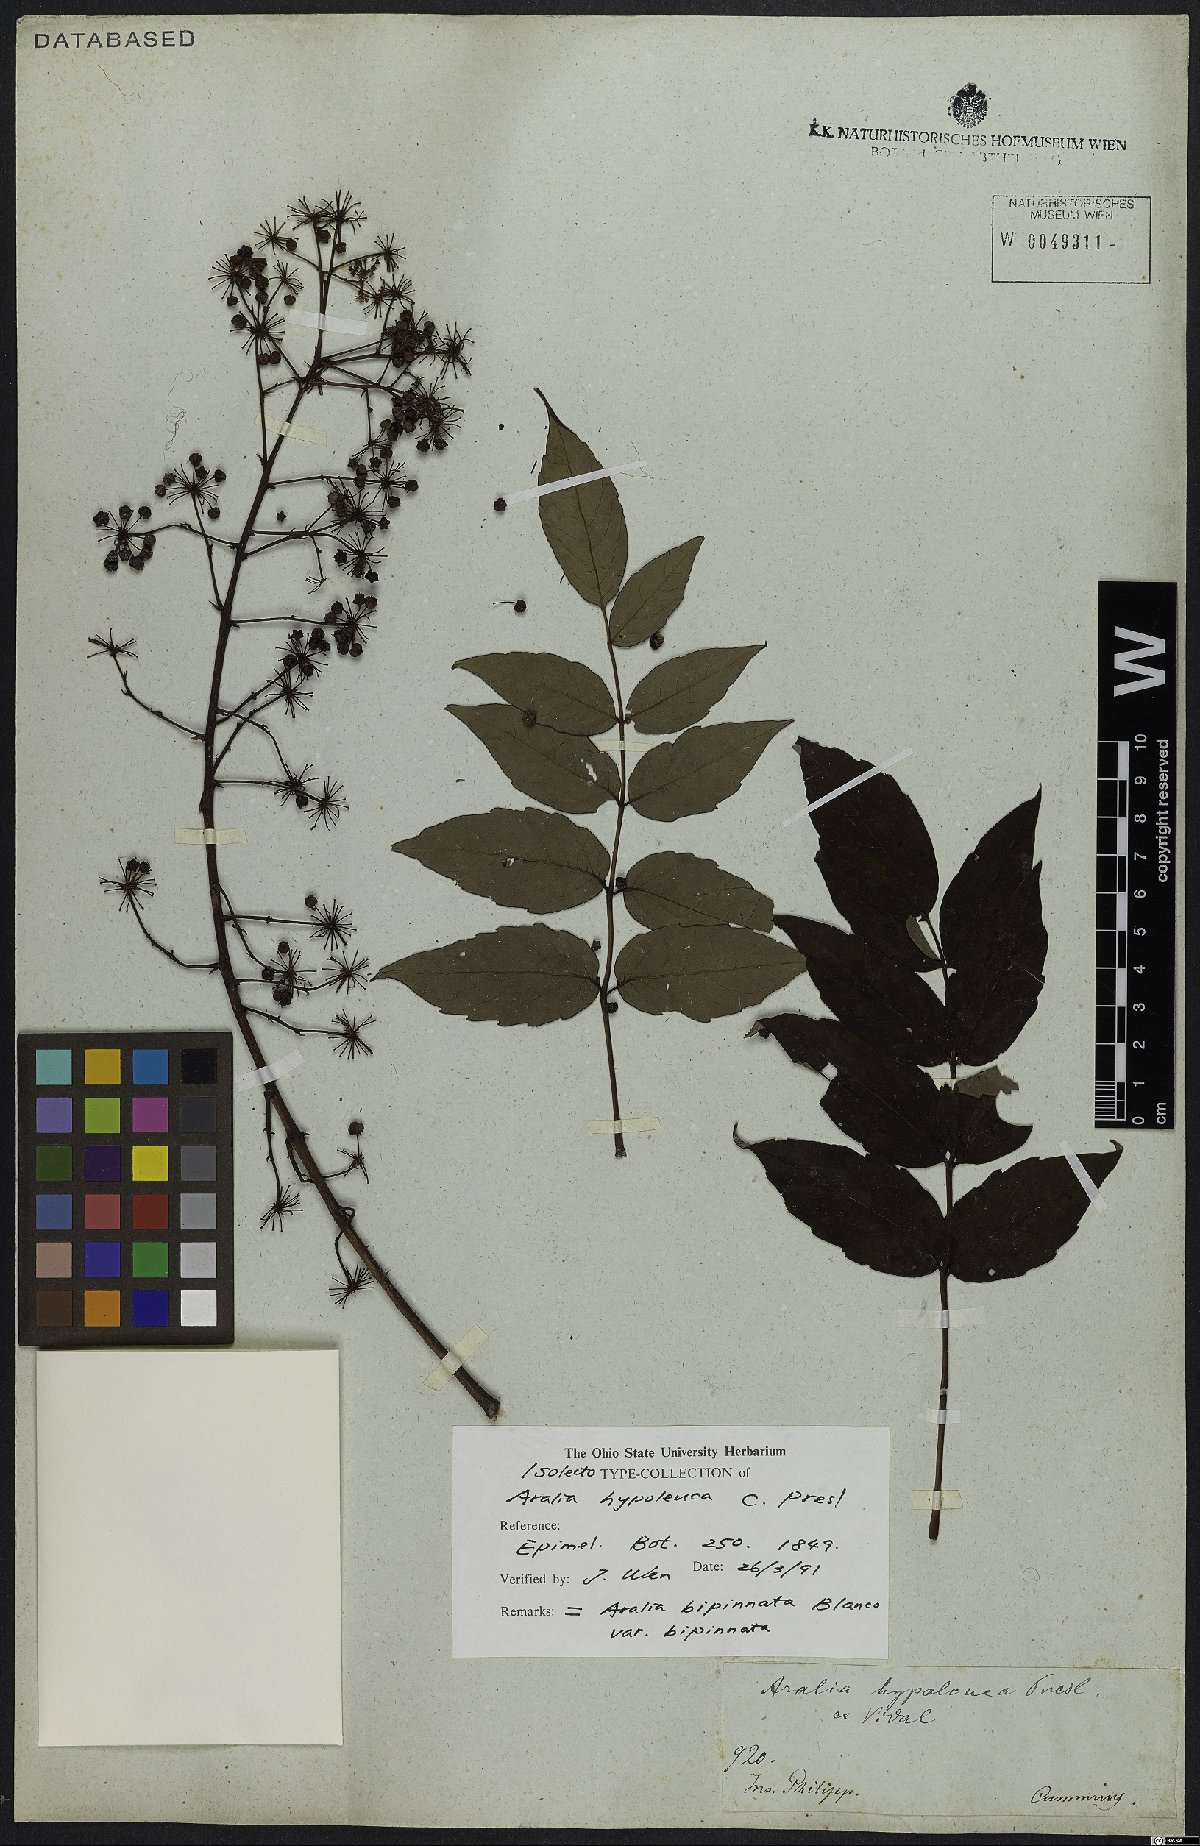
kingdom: Plantae
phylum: Tracheophyta
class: Magnoliopsida
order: Apiales
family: Araliaceae
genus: Aralia
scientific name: Aralia bipinnata
